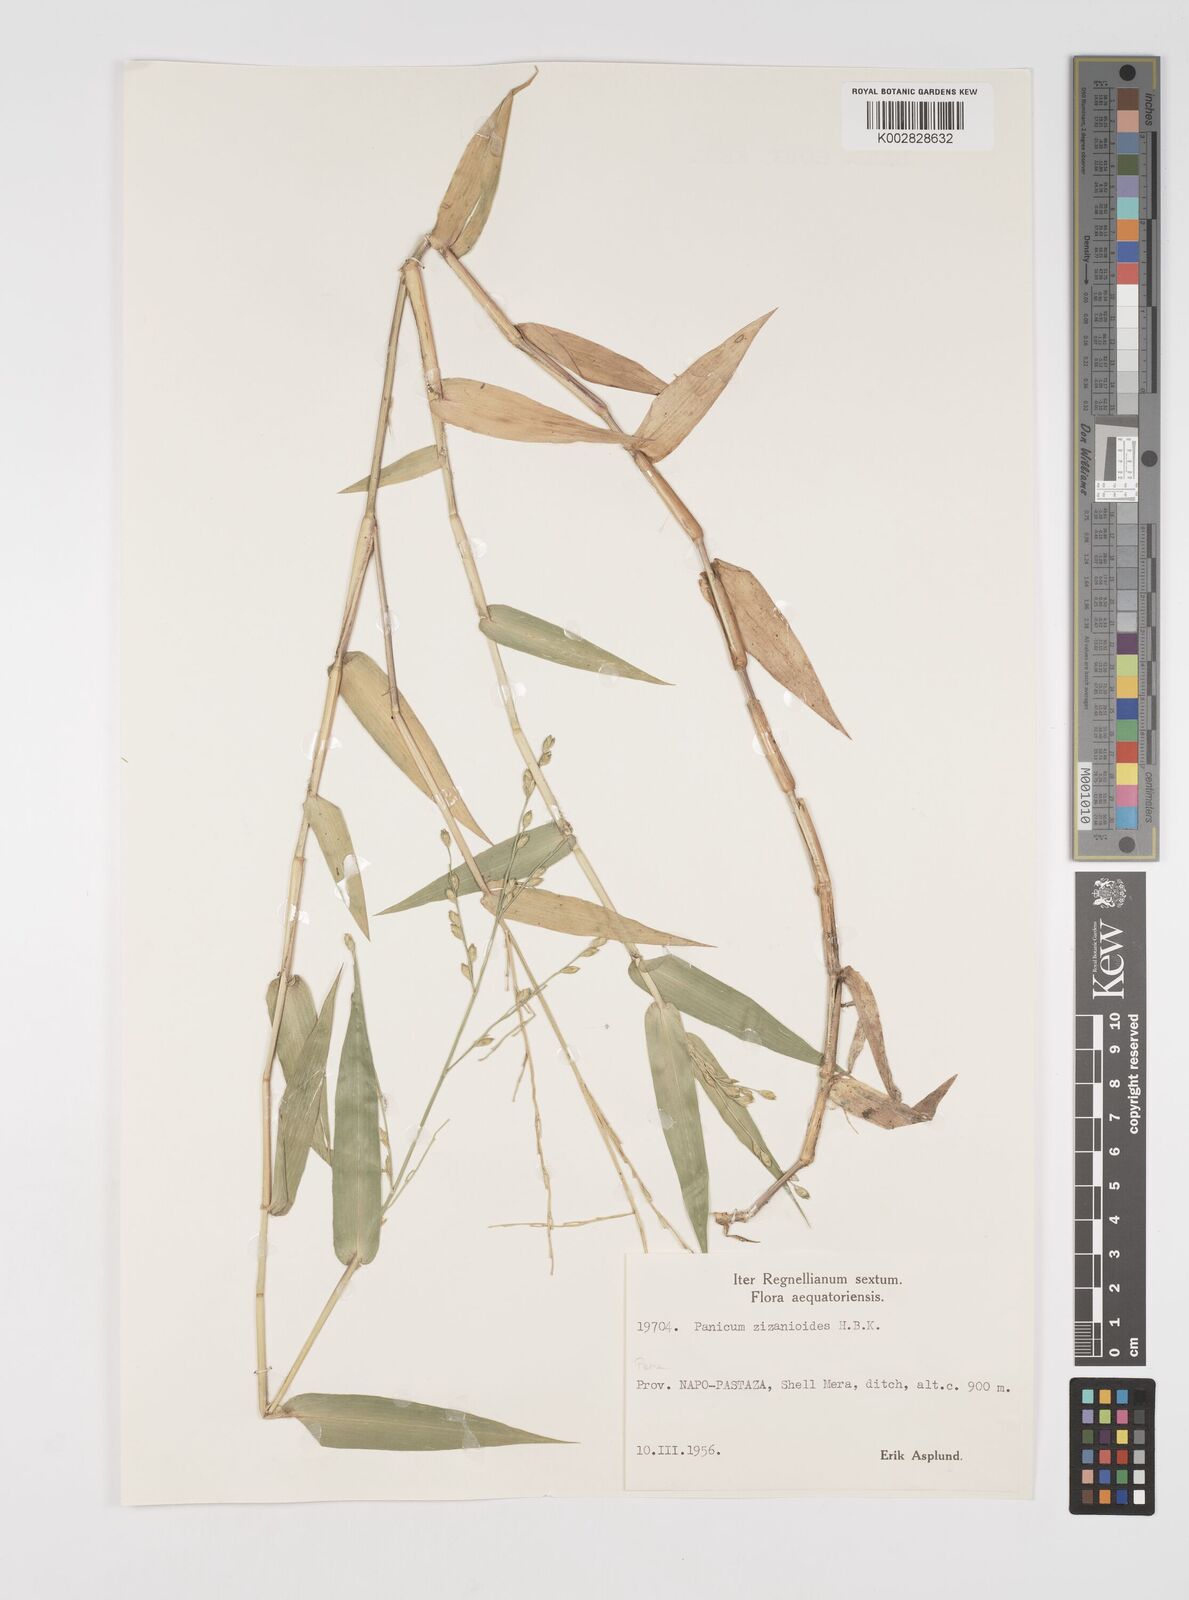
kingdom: Plantae
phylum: Tracheophyta
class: Liliopsida
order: Poales
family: Poaceae
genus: Acroceras
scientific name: Acroceras zizanioides
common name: Oat grass
